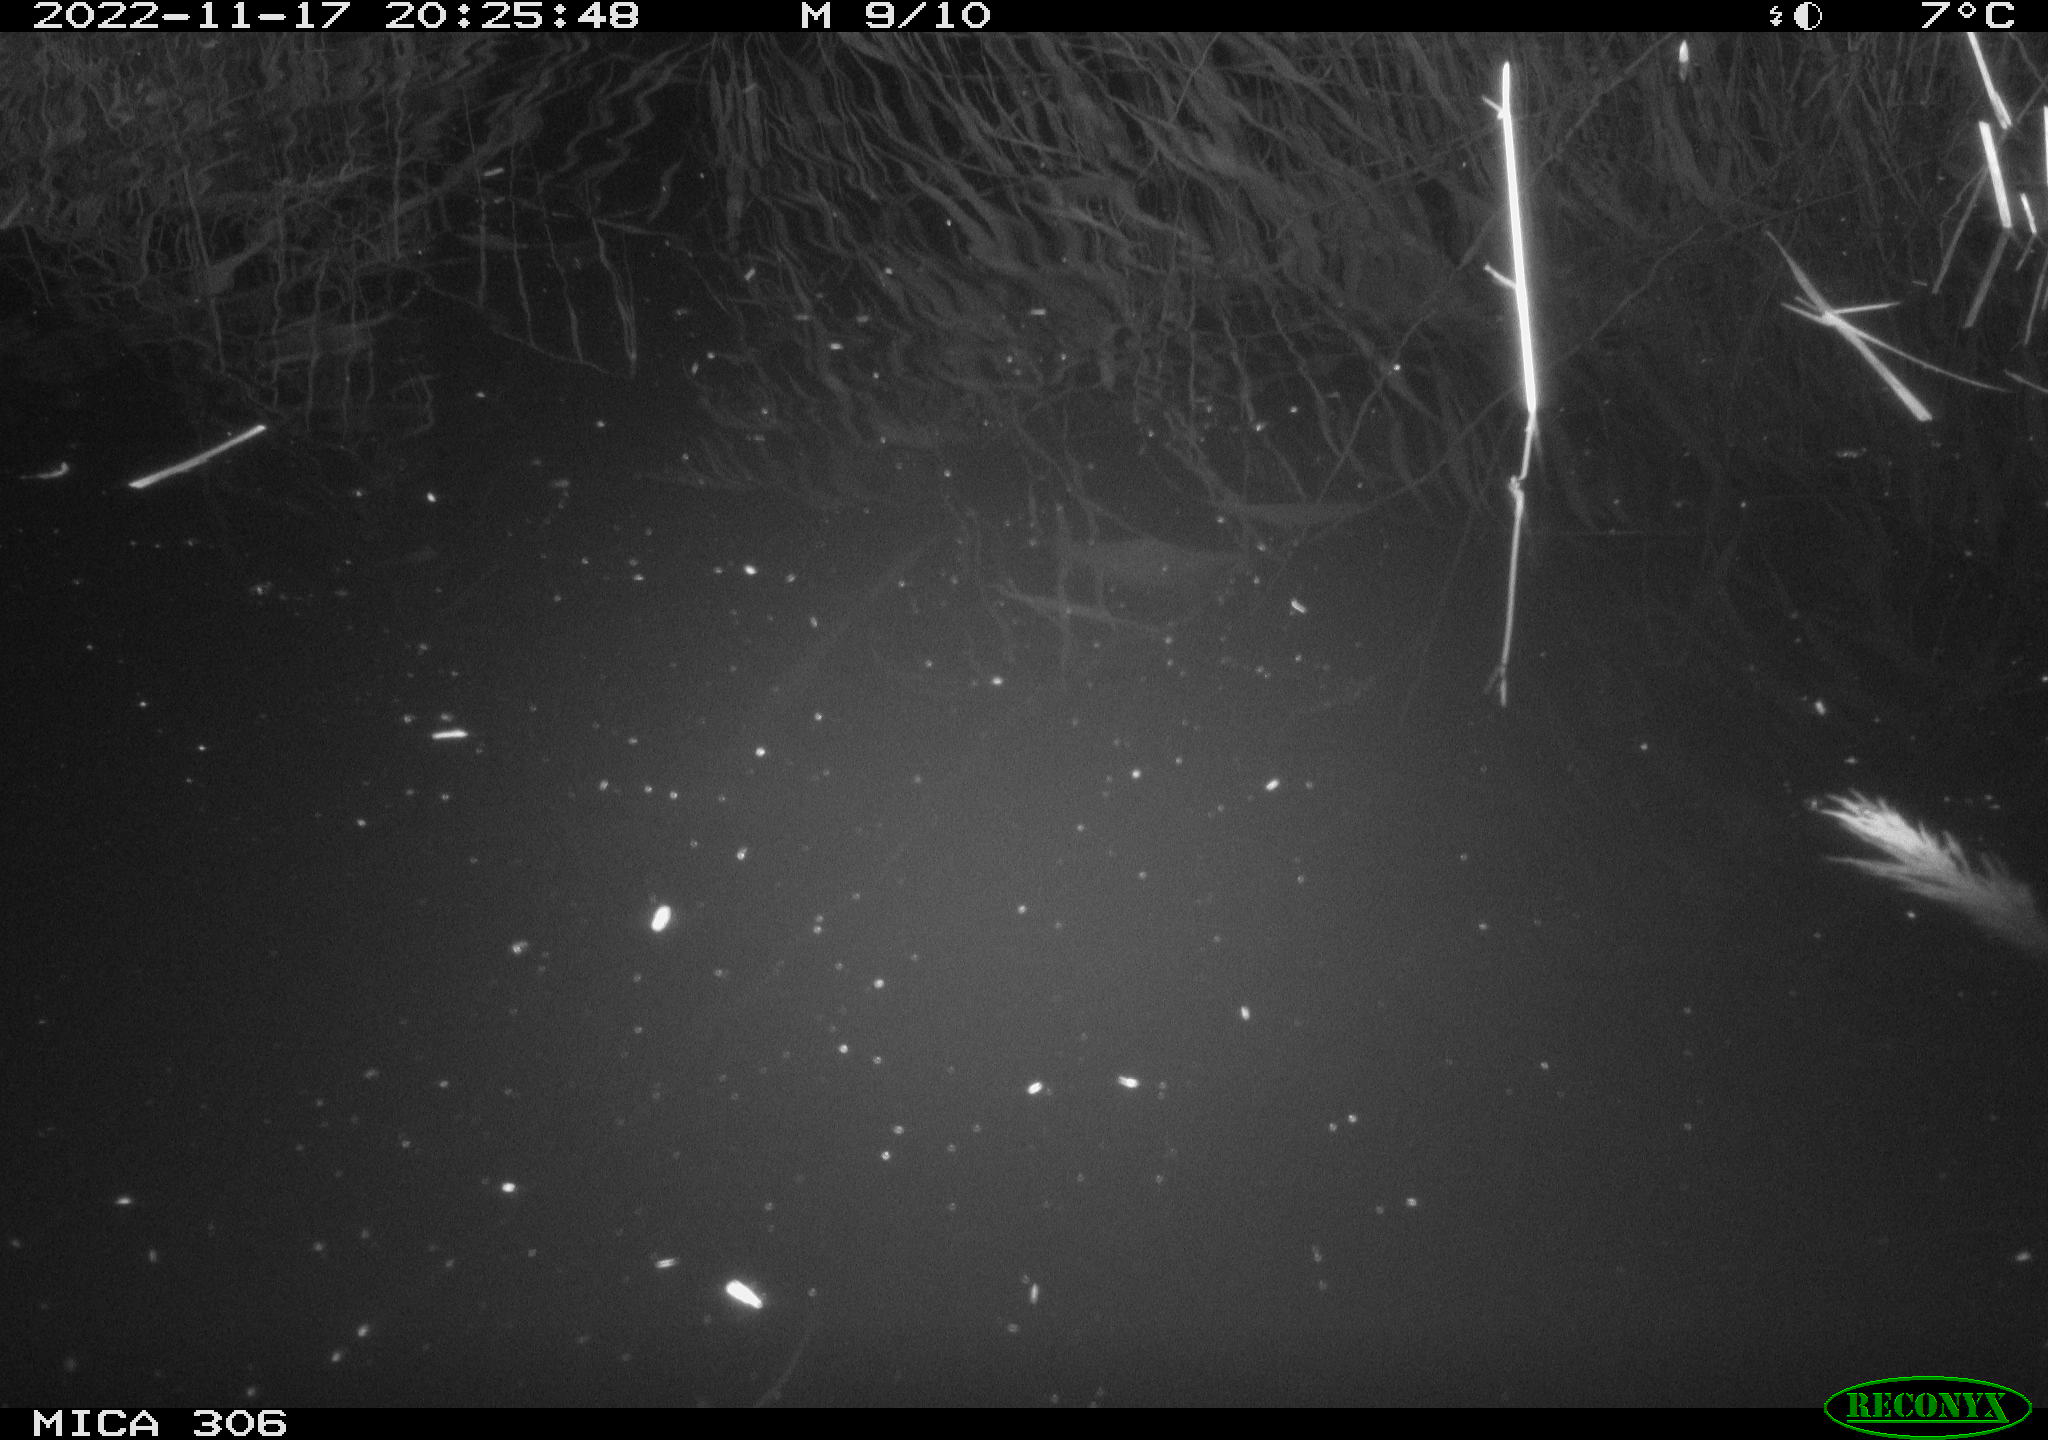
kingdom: Animalia
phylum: Chordata
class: Mammalia
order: Rodentia
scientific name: Rodentia
